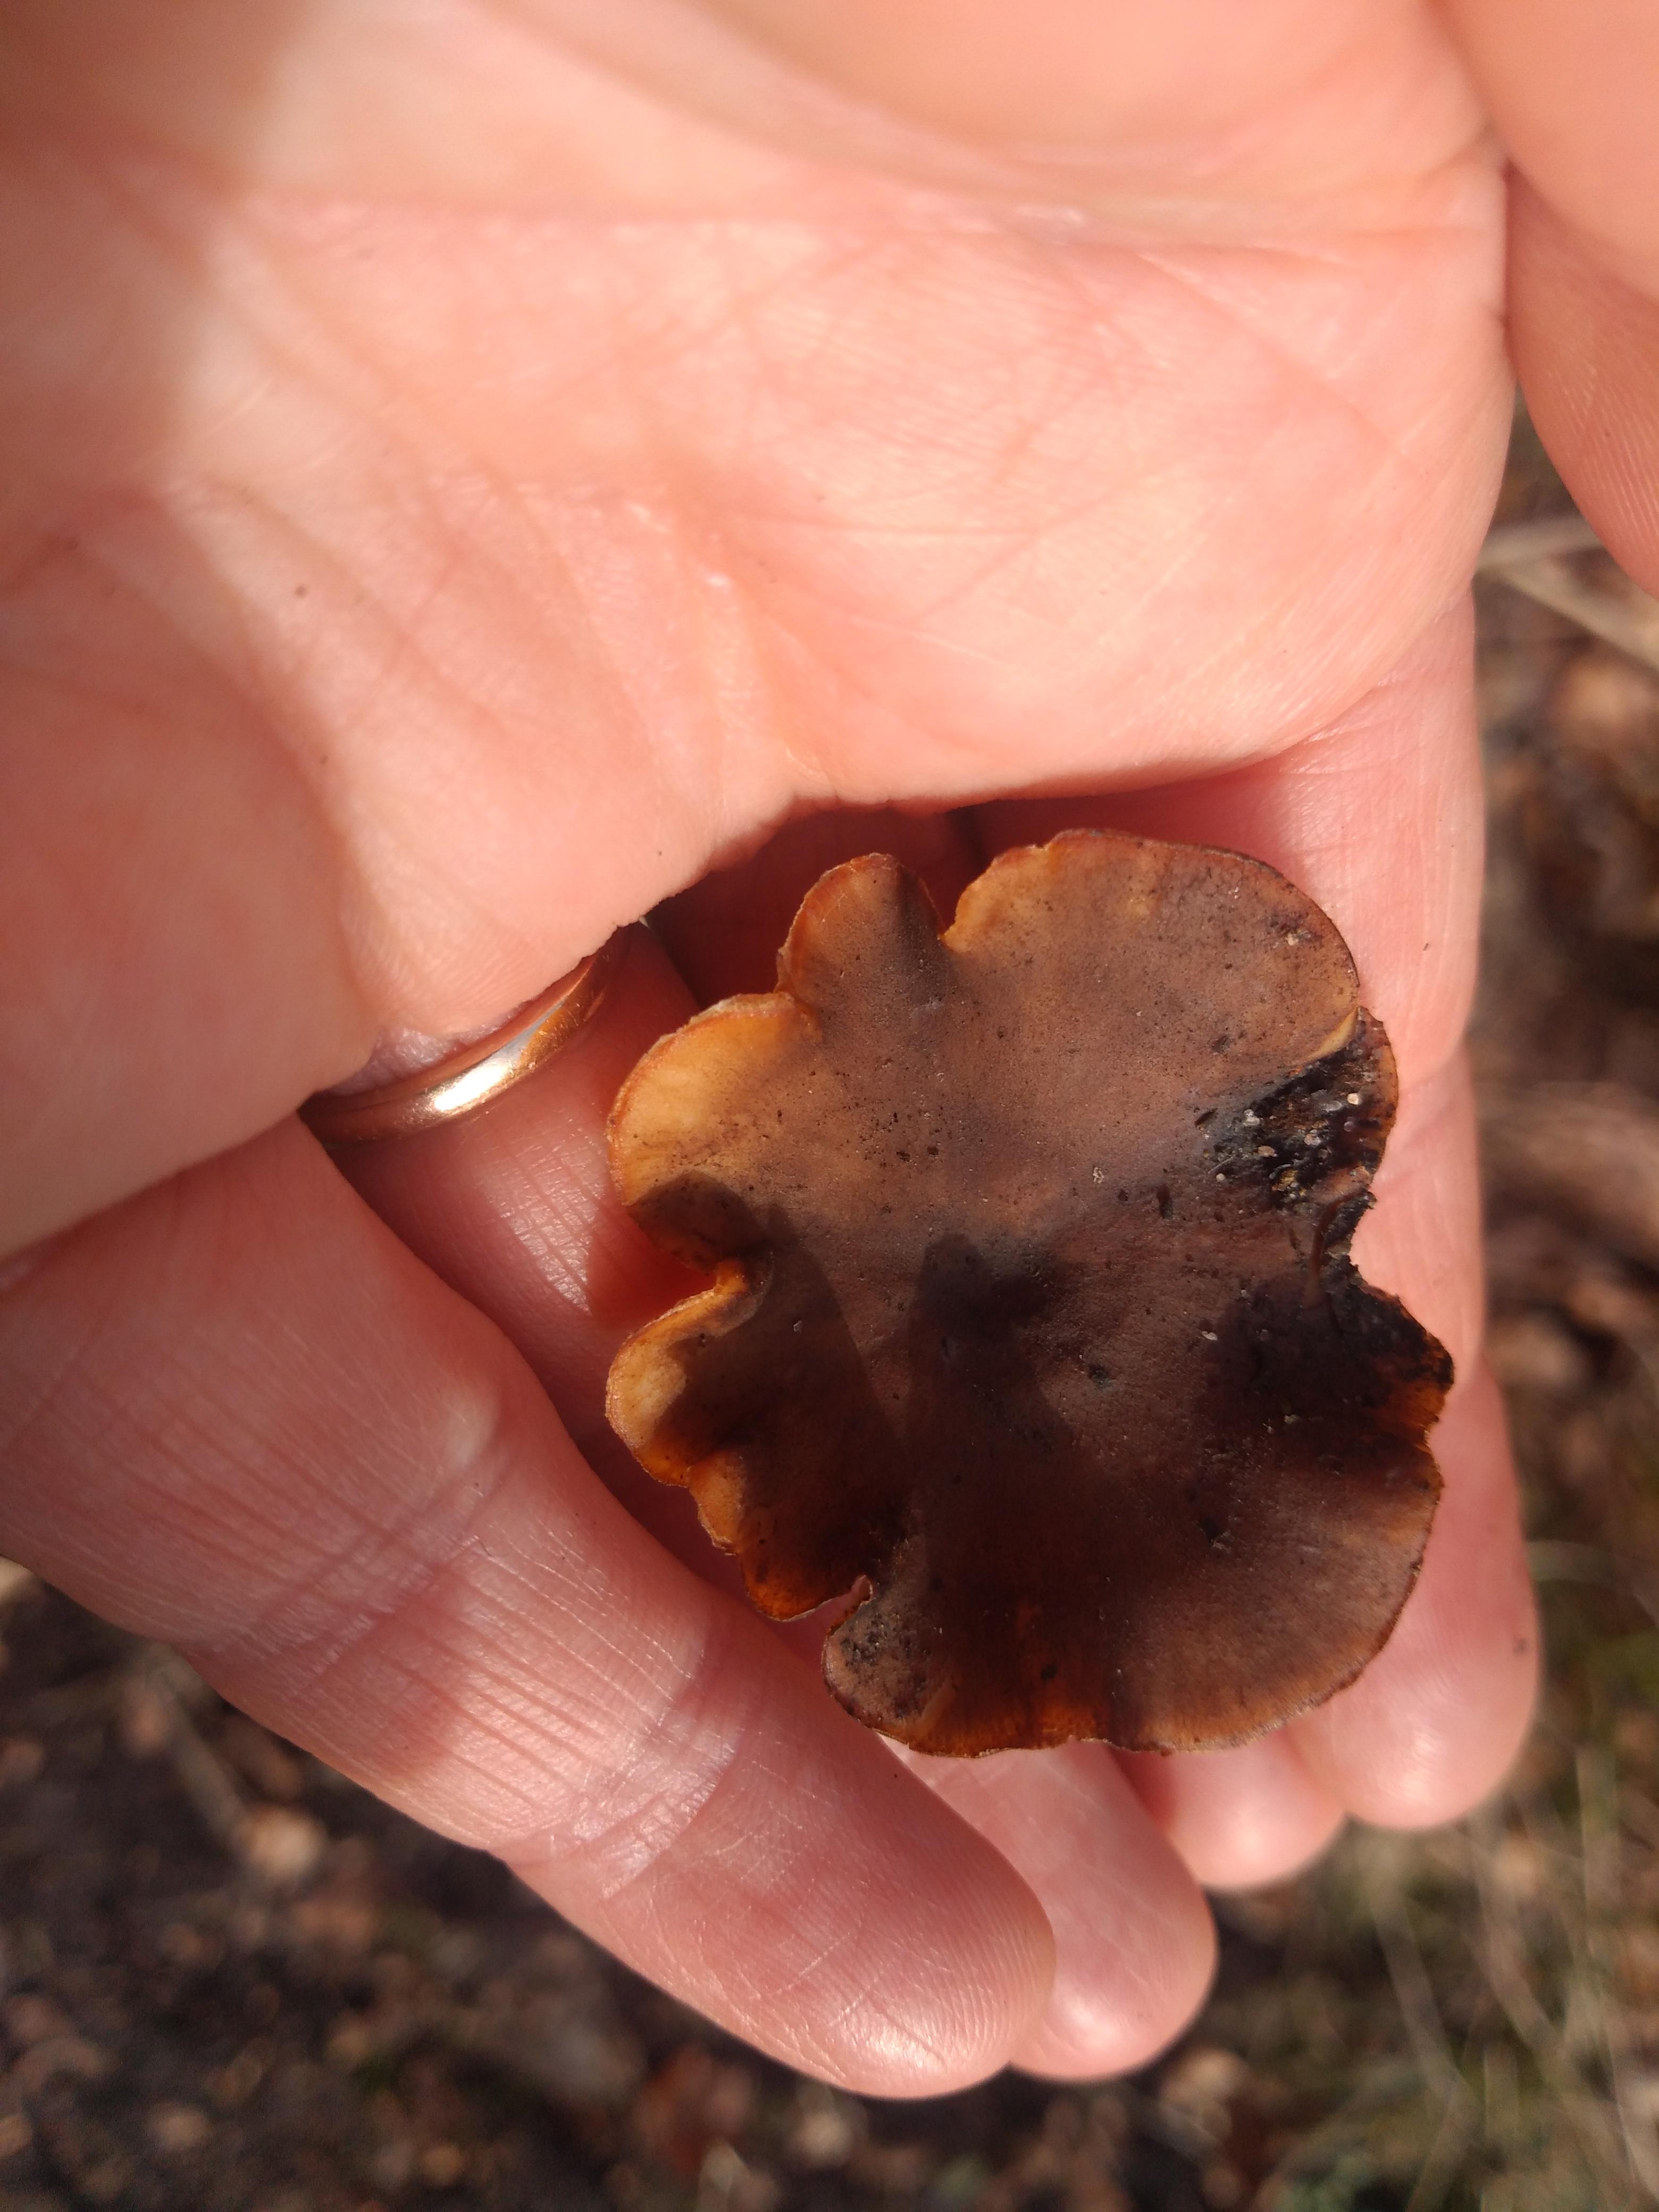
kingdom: Fungi
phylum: Basidiomycota
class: Agaricomycetes
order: Polyporales
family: Polyporaceae
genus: Lentinus
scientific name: Lentinus brumalis
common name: vinter-stilkporesvamp
